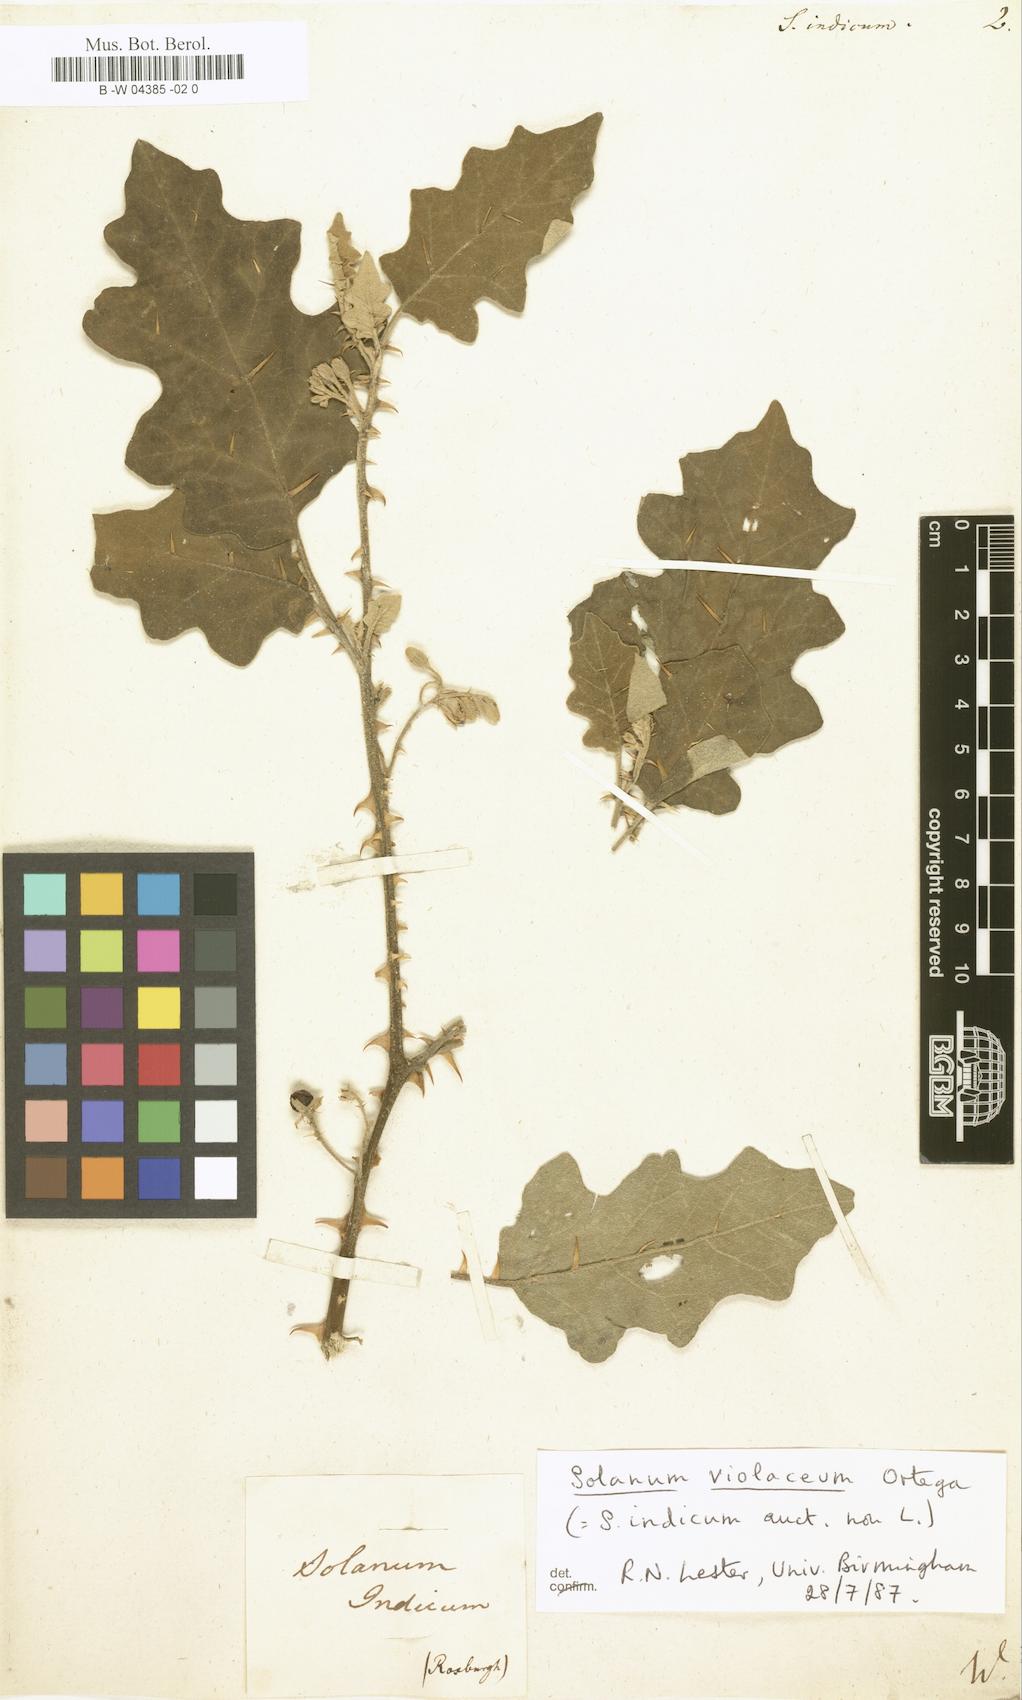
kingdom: Plantae
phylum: Tracheophyta
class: Magnoliopsida
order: Solanales
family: Solanaceae
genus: Solanum
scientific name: Solanum
